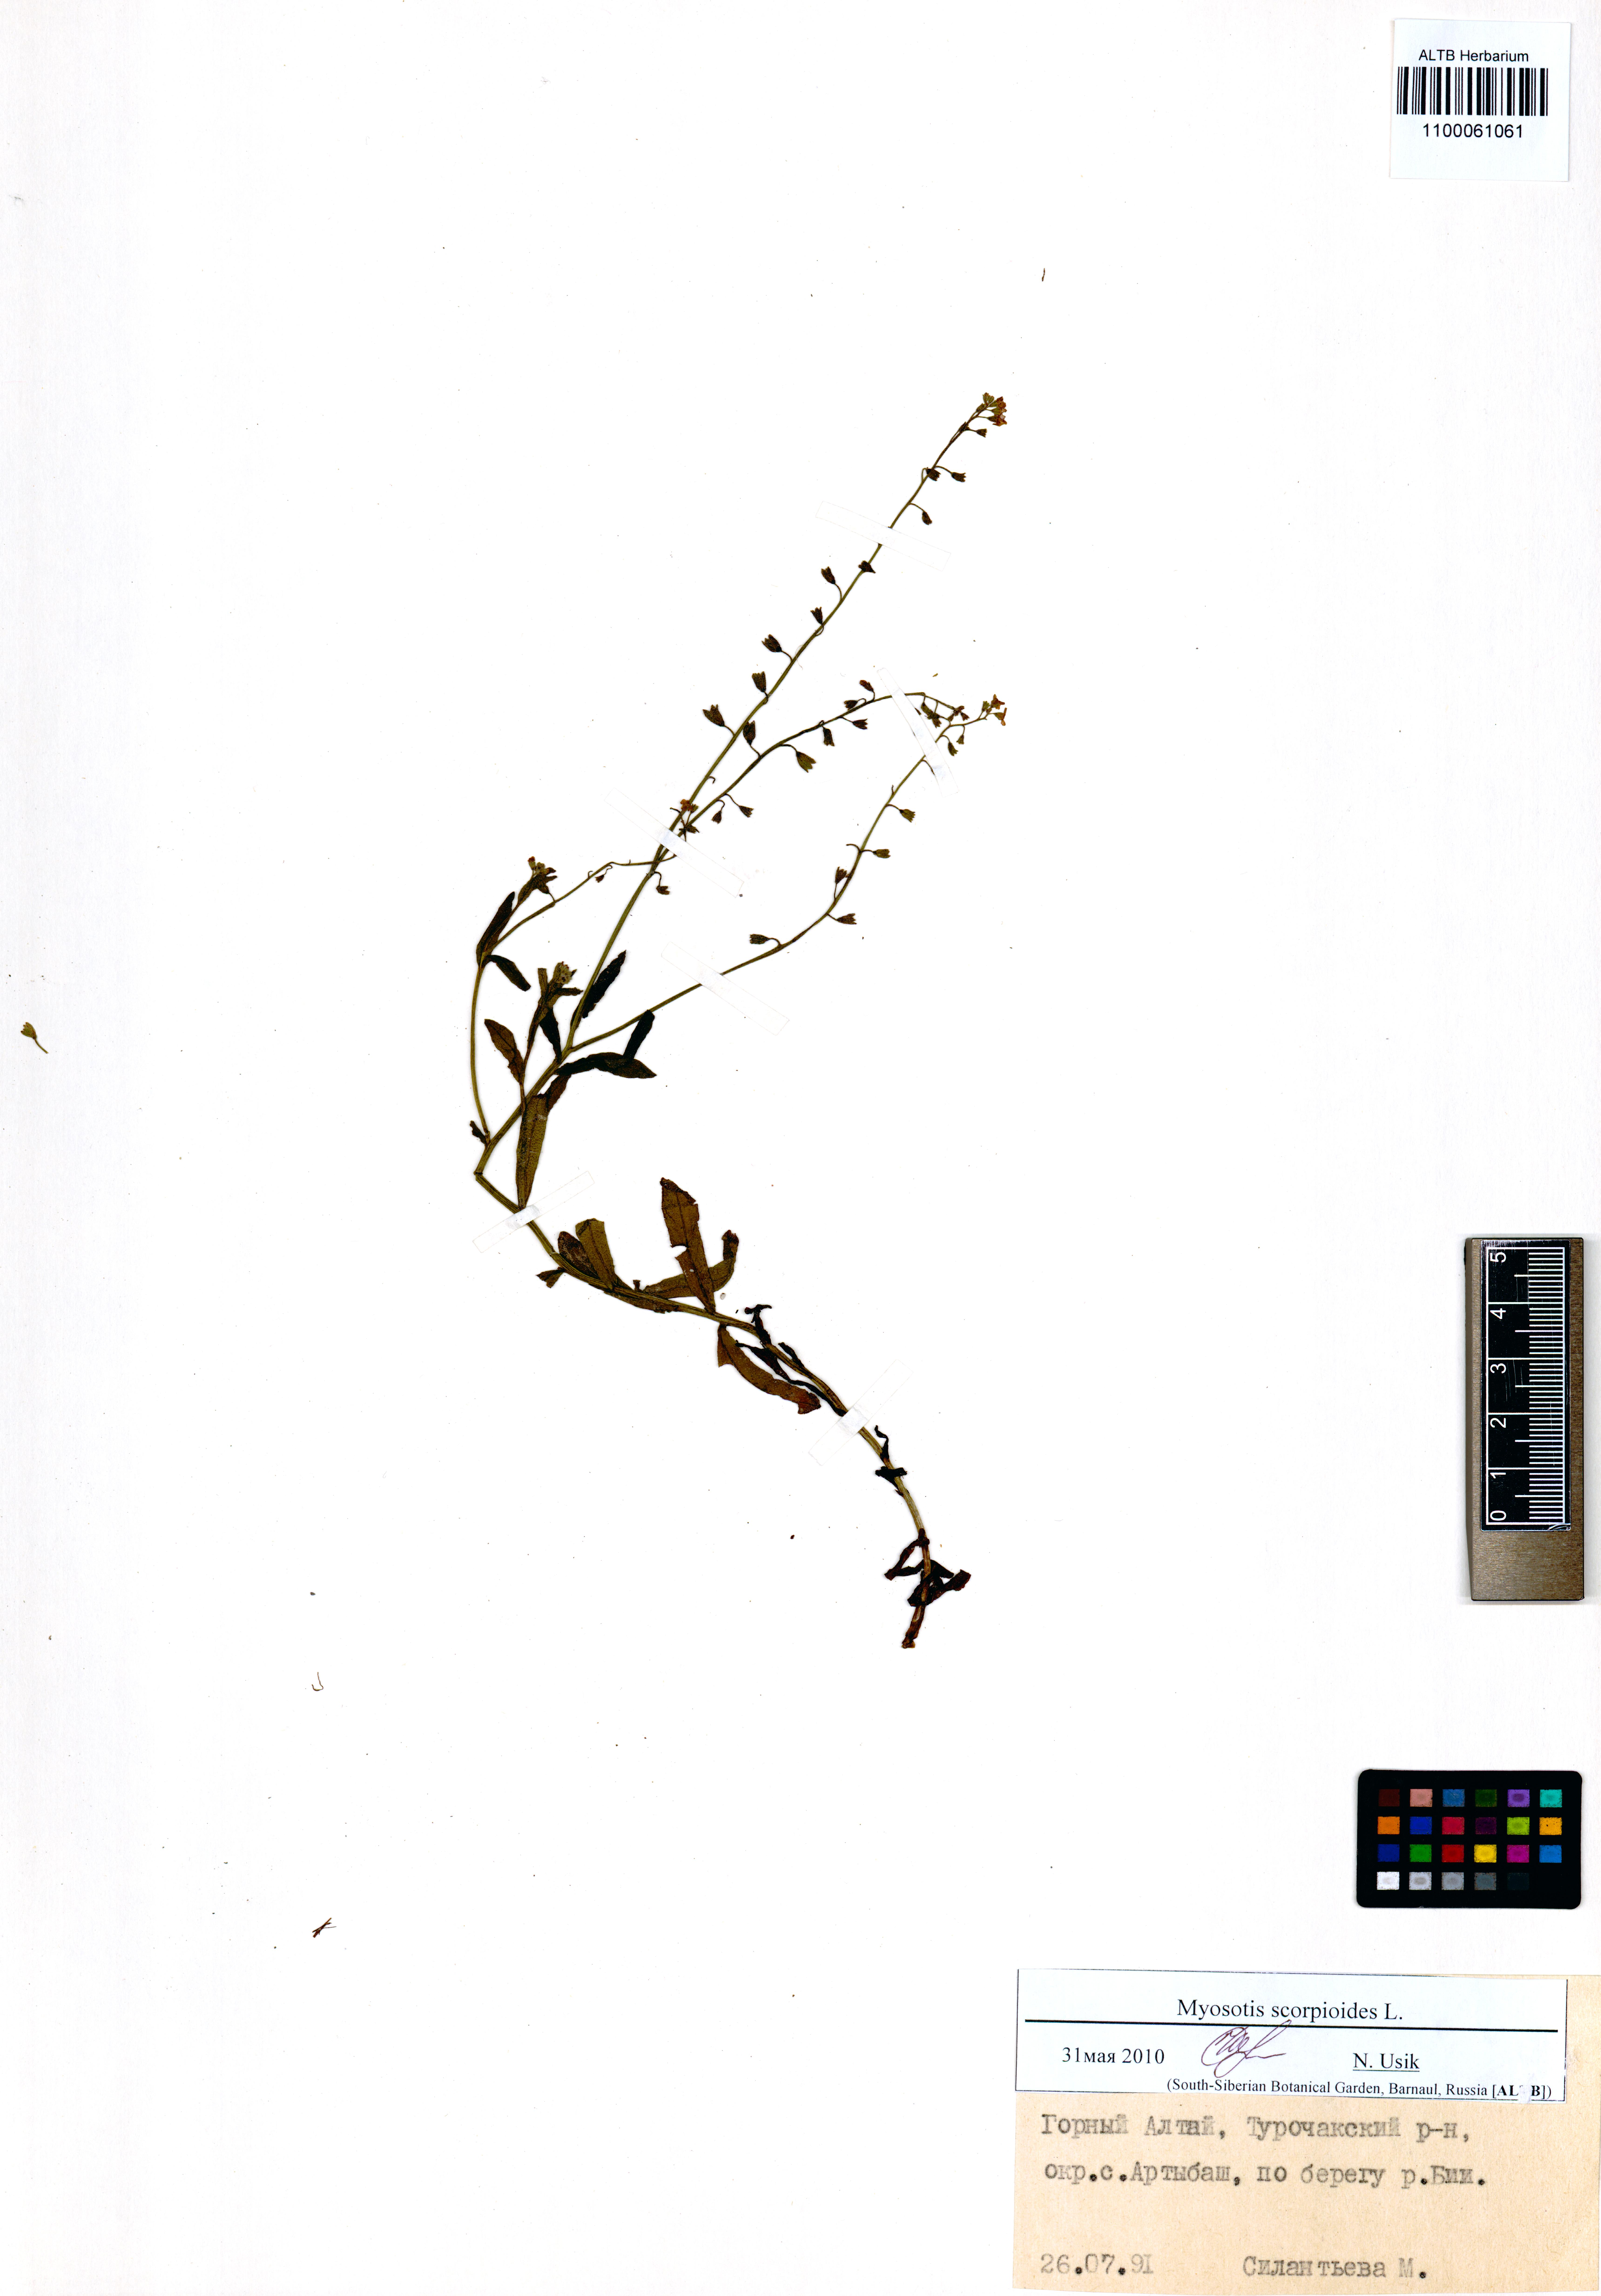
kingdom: Plantae
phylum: Tracheophyta
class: Magnoliopsida
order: Boraginales
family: Boraginaceae
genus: Myosotis
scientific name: Myosotis scorpioides
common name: Water forget-me-not
